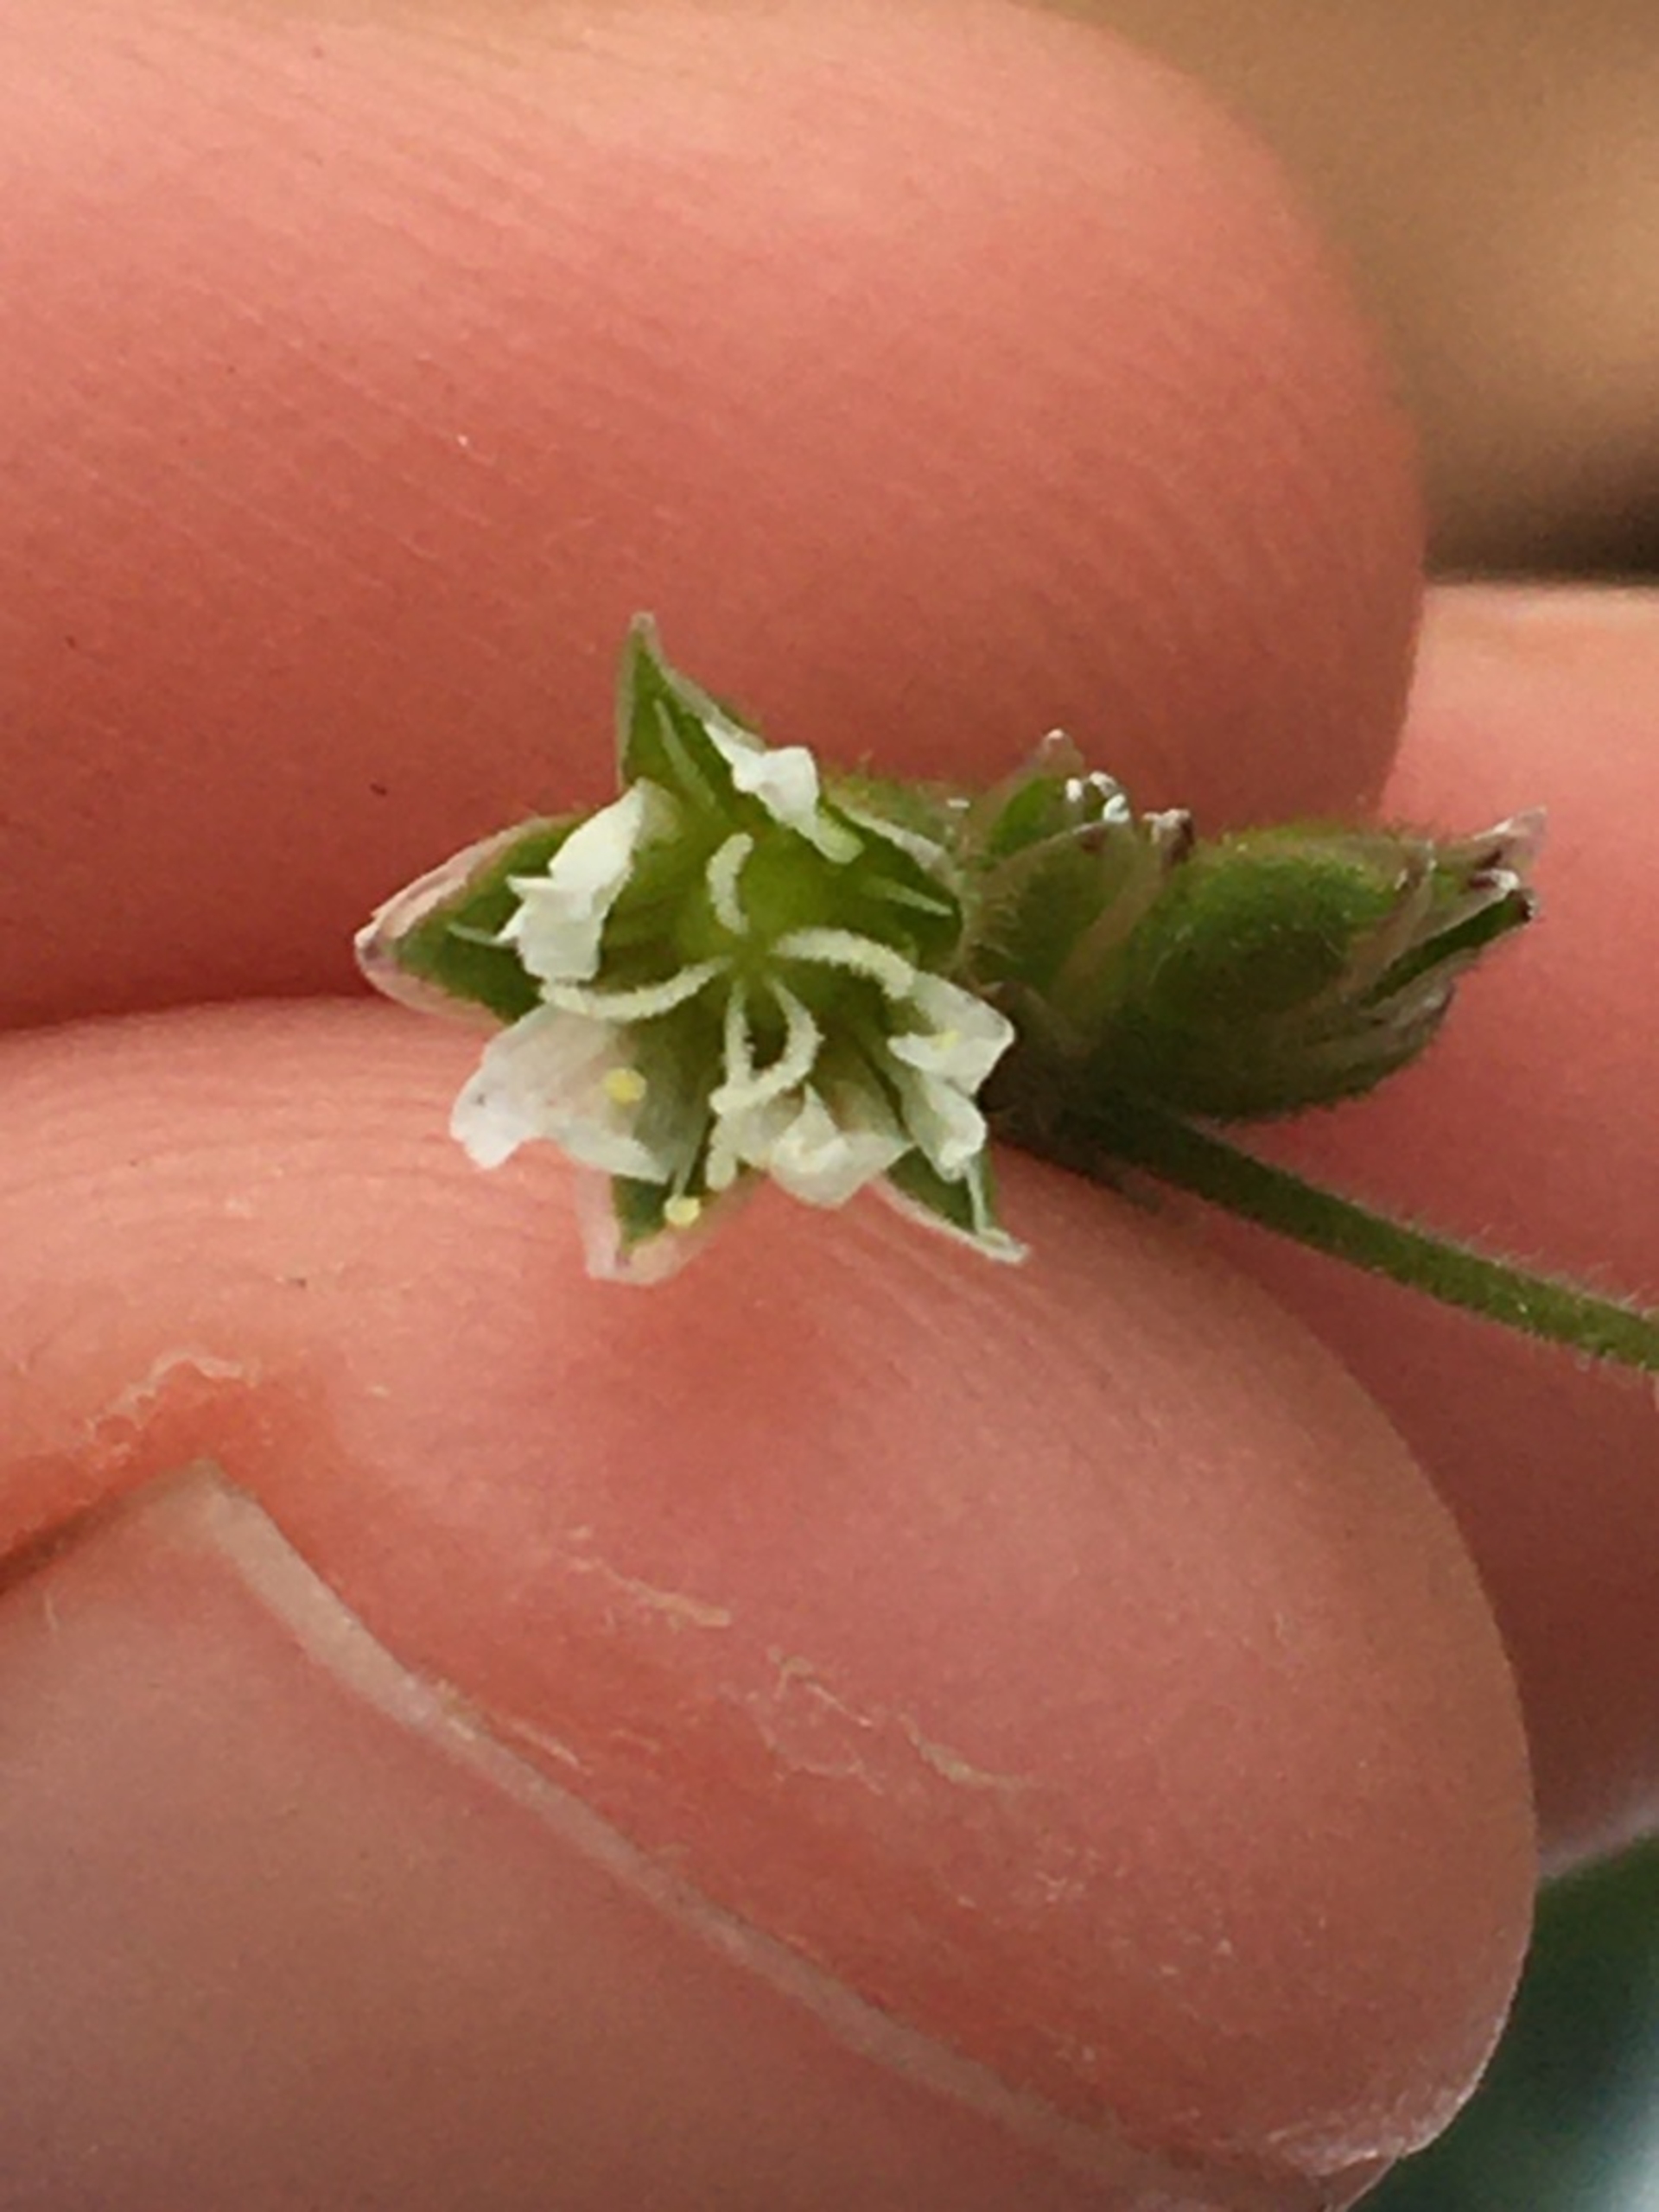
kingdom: Plantae
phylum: Tracheophyta
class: Magnoliopsida
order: Caryophyllales
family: Caryophyllaceae
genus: Cerastium
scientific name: Cerastium fontanum
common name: Almindelig hønsetarm
